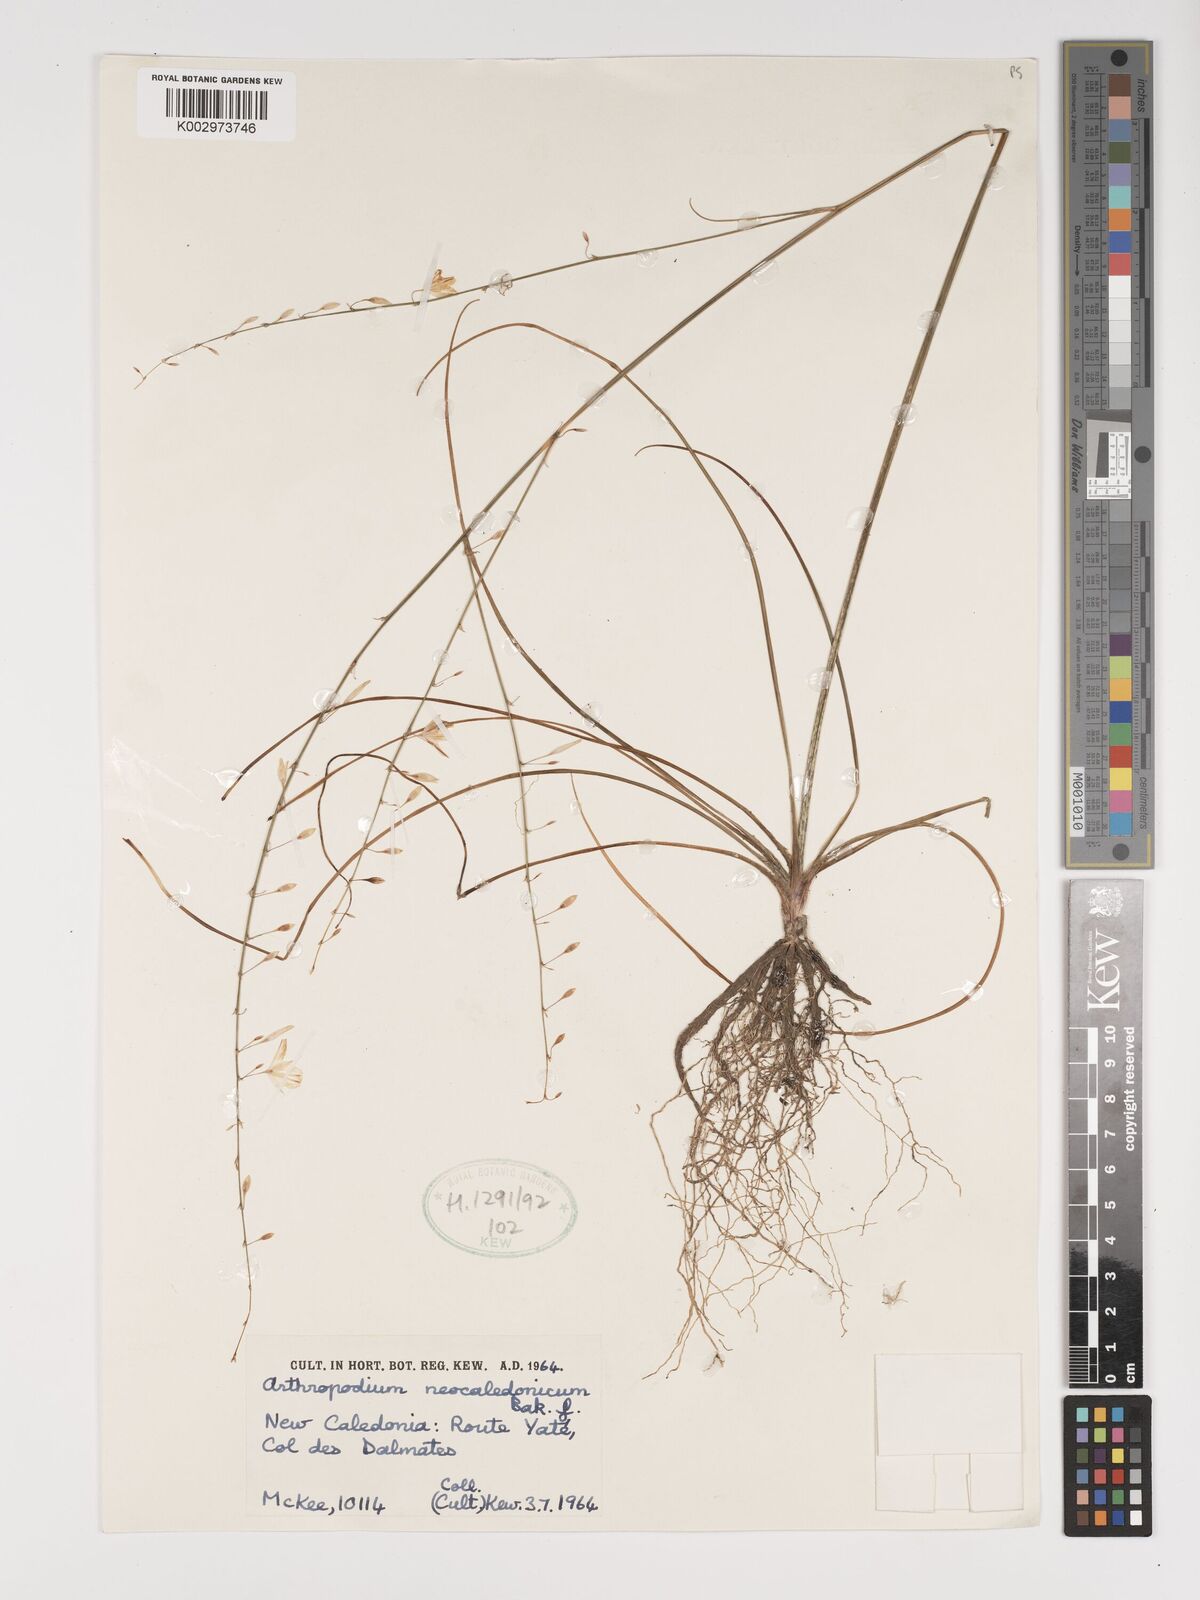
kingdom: Plantae
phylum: Tracheophyta
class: Liliopsida
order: Asparagales
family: Asparagaceae
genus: Arthropodium
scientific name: Arthropodium neocaledonicum
